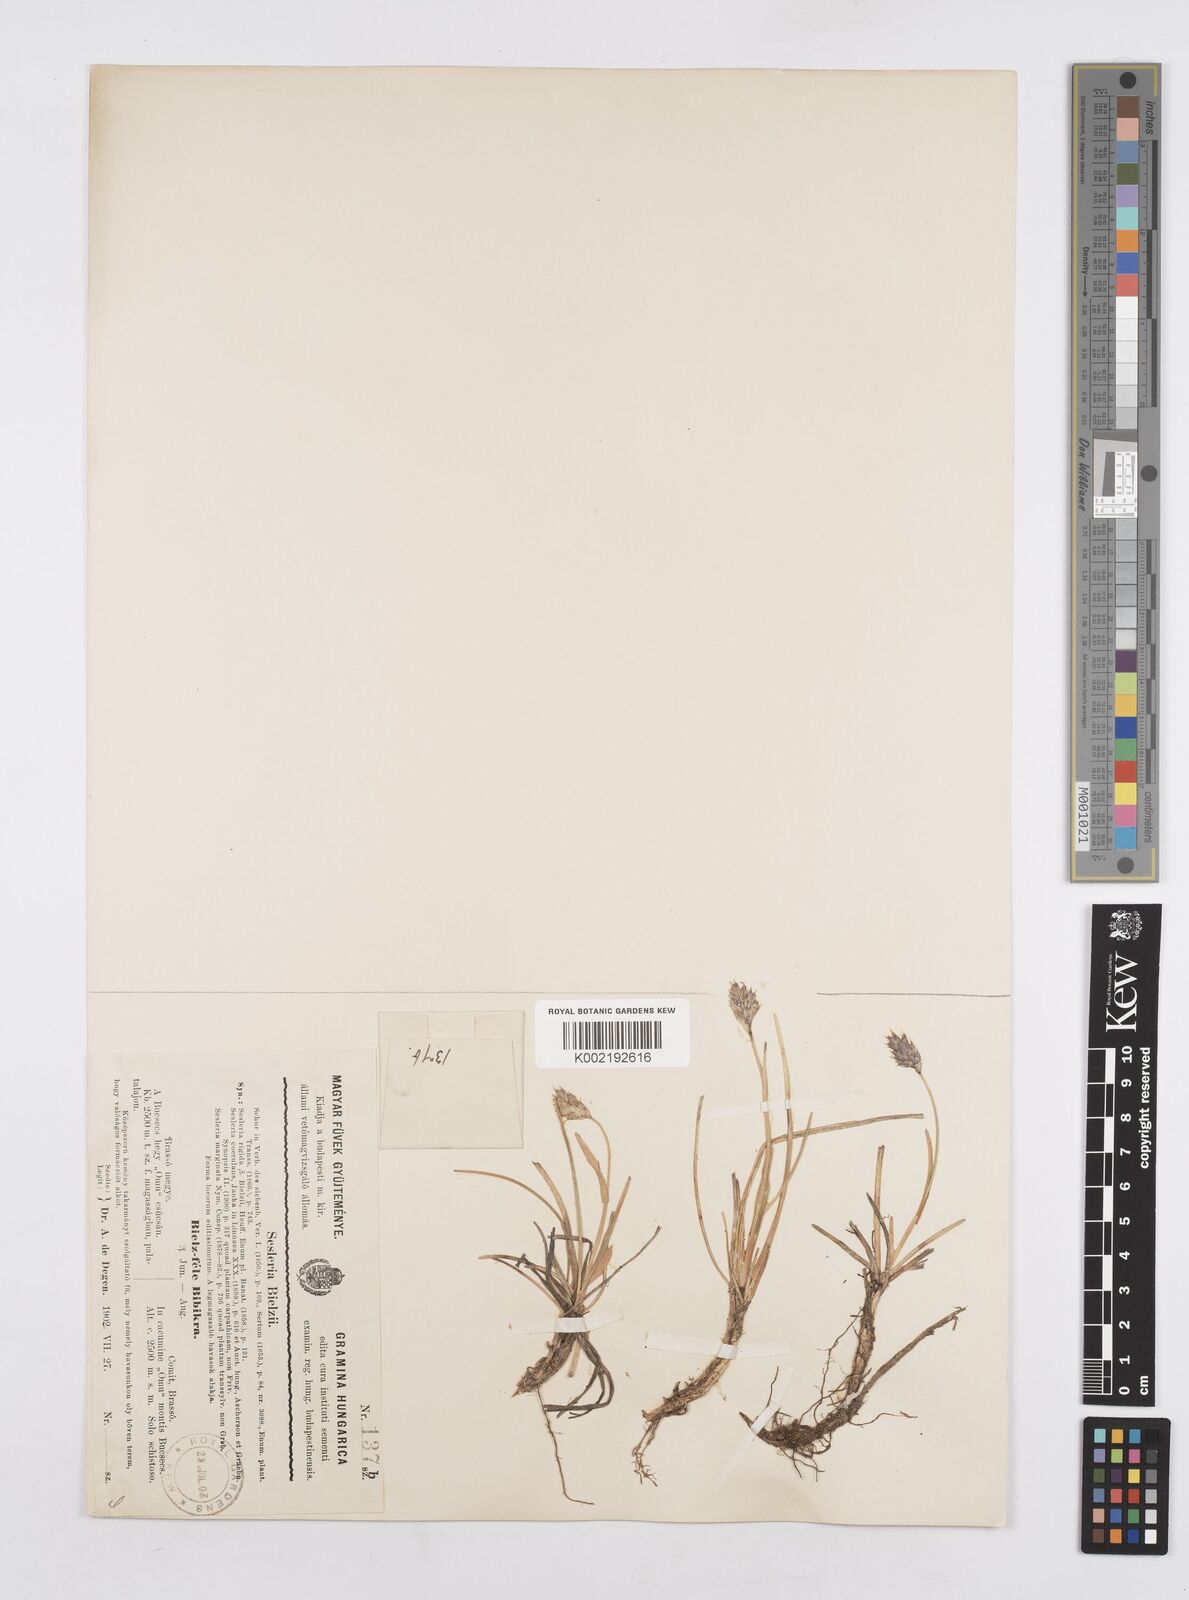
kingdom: Plantae
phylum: Tracheophyta
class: Liliopsida
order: Poales
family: Poaceae
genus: Sesleria
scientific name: Sesleria bielzii
